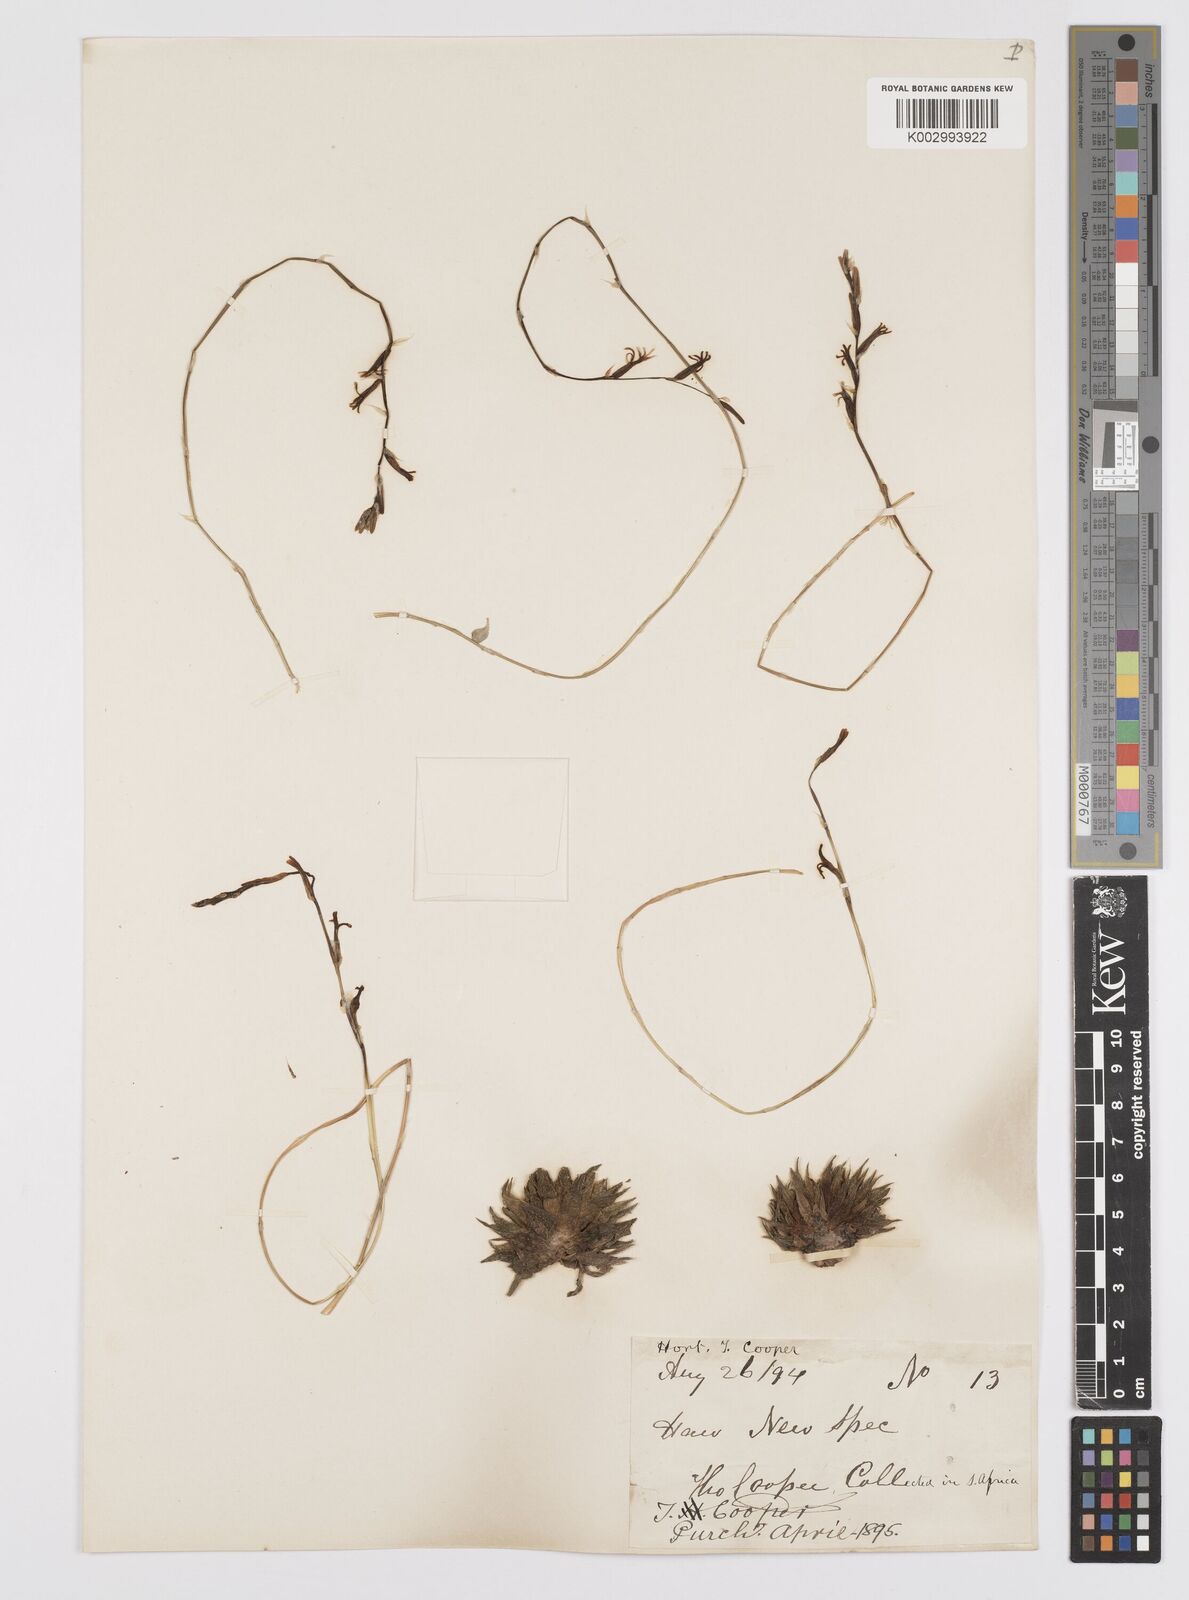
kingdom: Plantae
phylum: Tracheophyta
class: Liliopsida
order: Asparagales
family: Asphodelaceae
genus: Haworthia
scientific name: Haworthia cooperi
